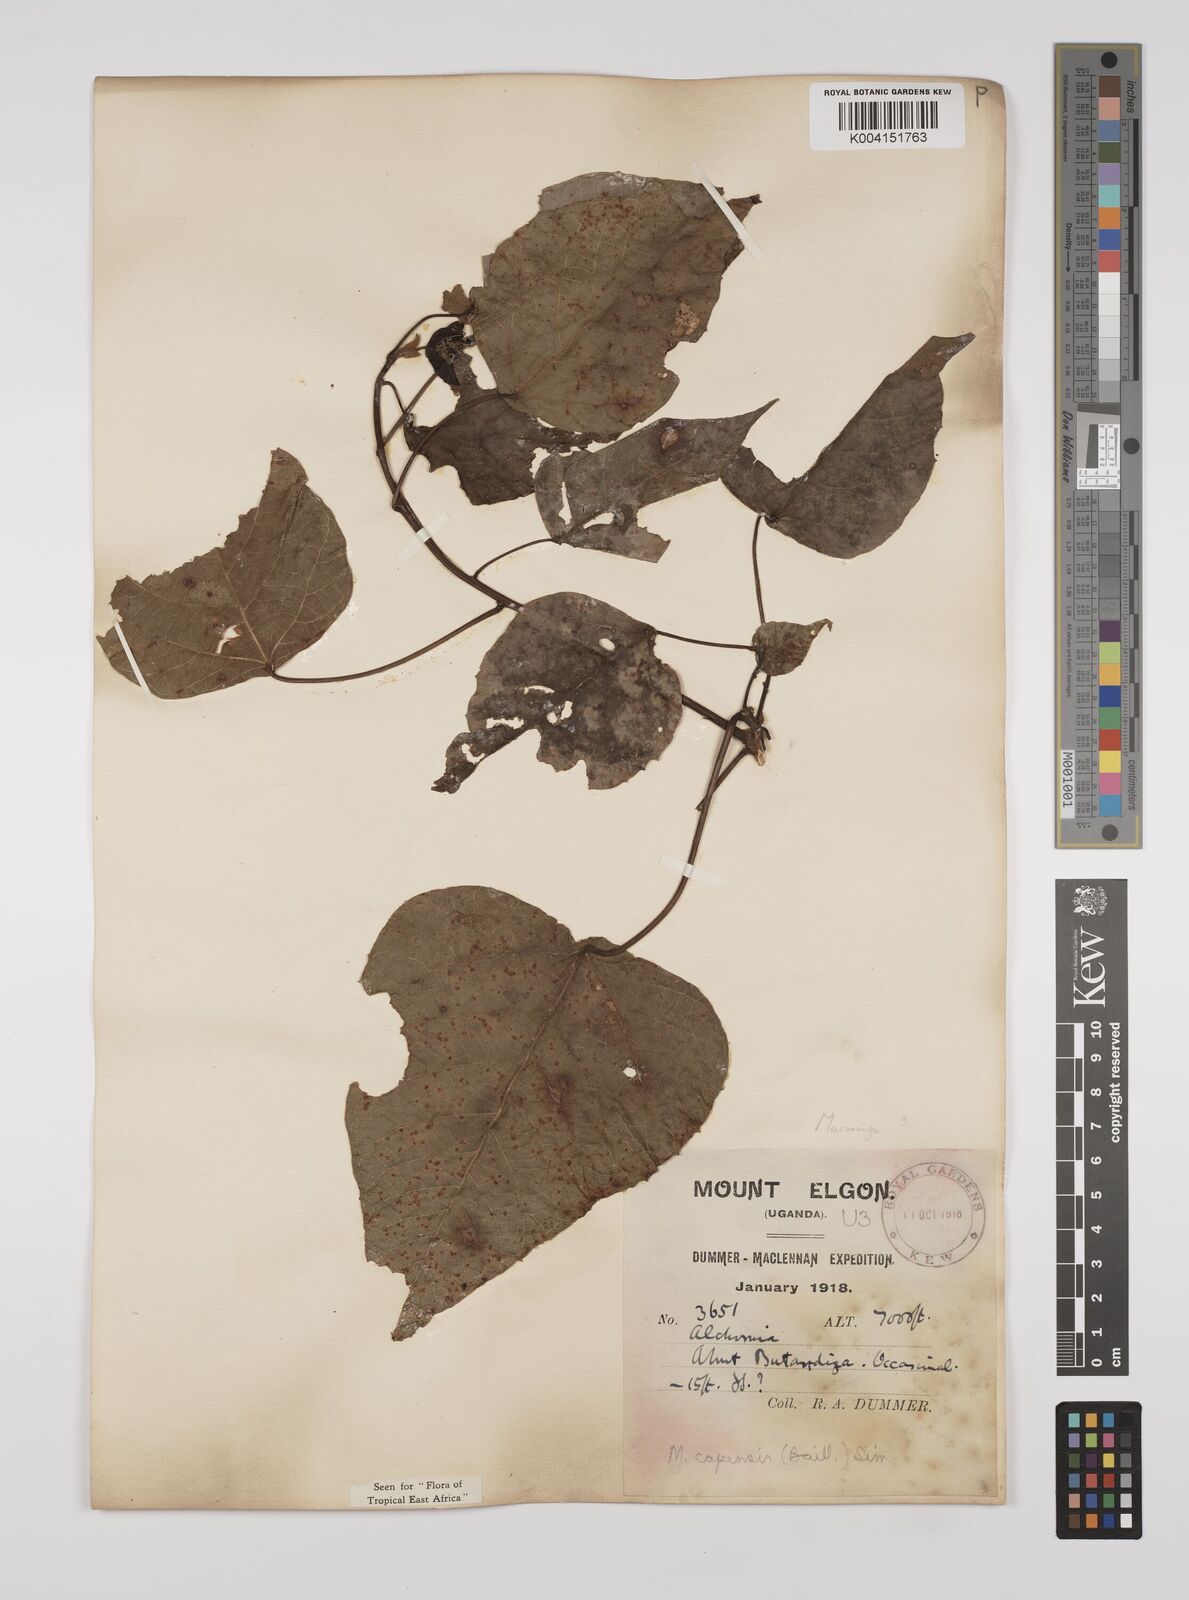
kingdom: Plantae
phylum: Tracheophyta
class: Magnoliopsida
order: Malpighiales
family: Euphorbiaceae
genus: Macaranga
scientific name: Macaranga capensis
